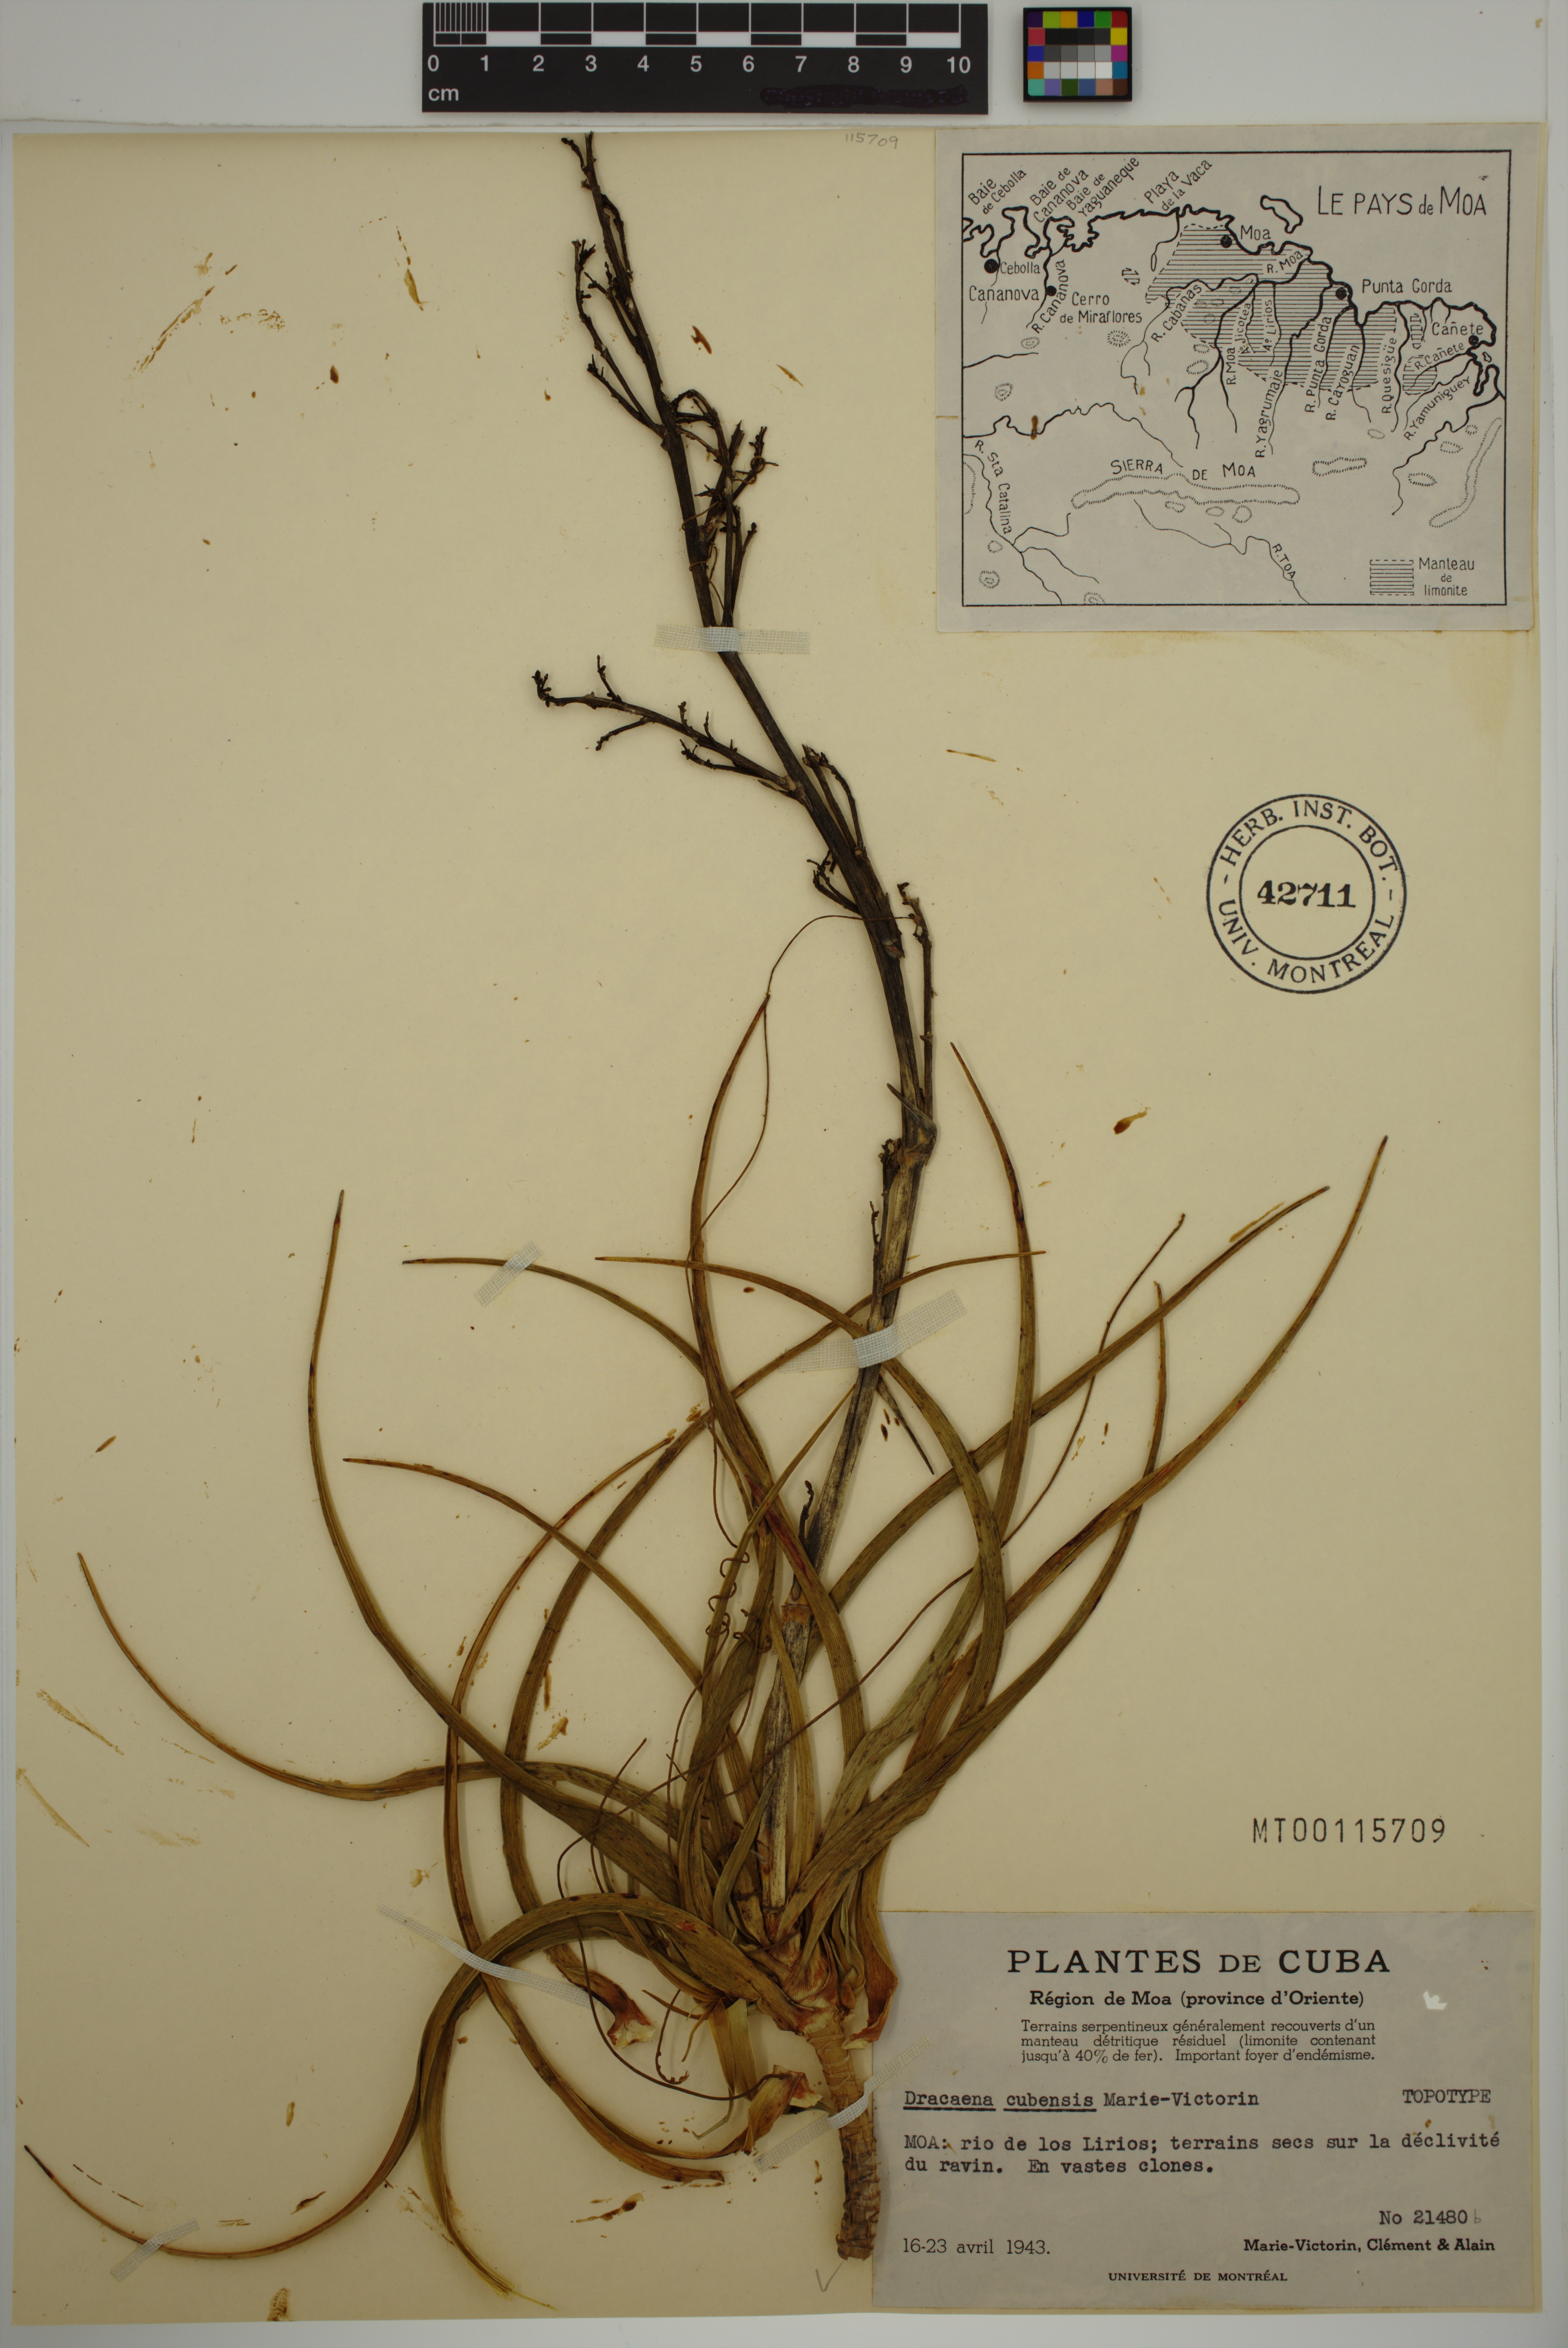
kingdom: Plantae
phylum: Tracheophyta
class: Liliopsida
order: Asparagales
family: Asparagaceae
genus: Dracaena
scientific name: Dracaena cubensis
